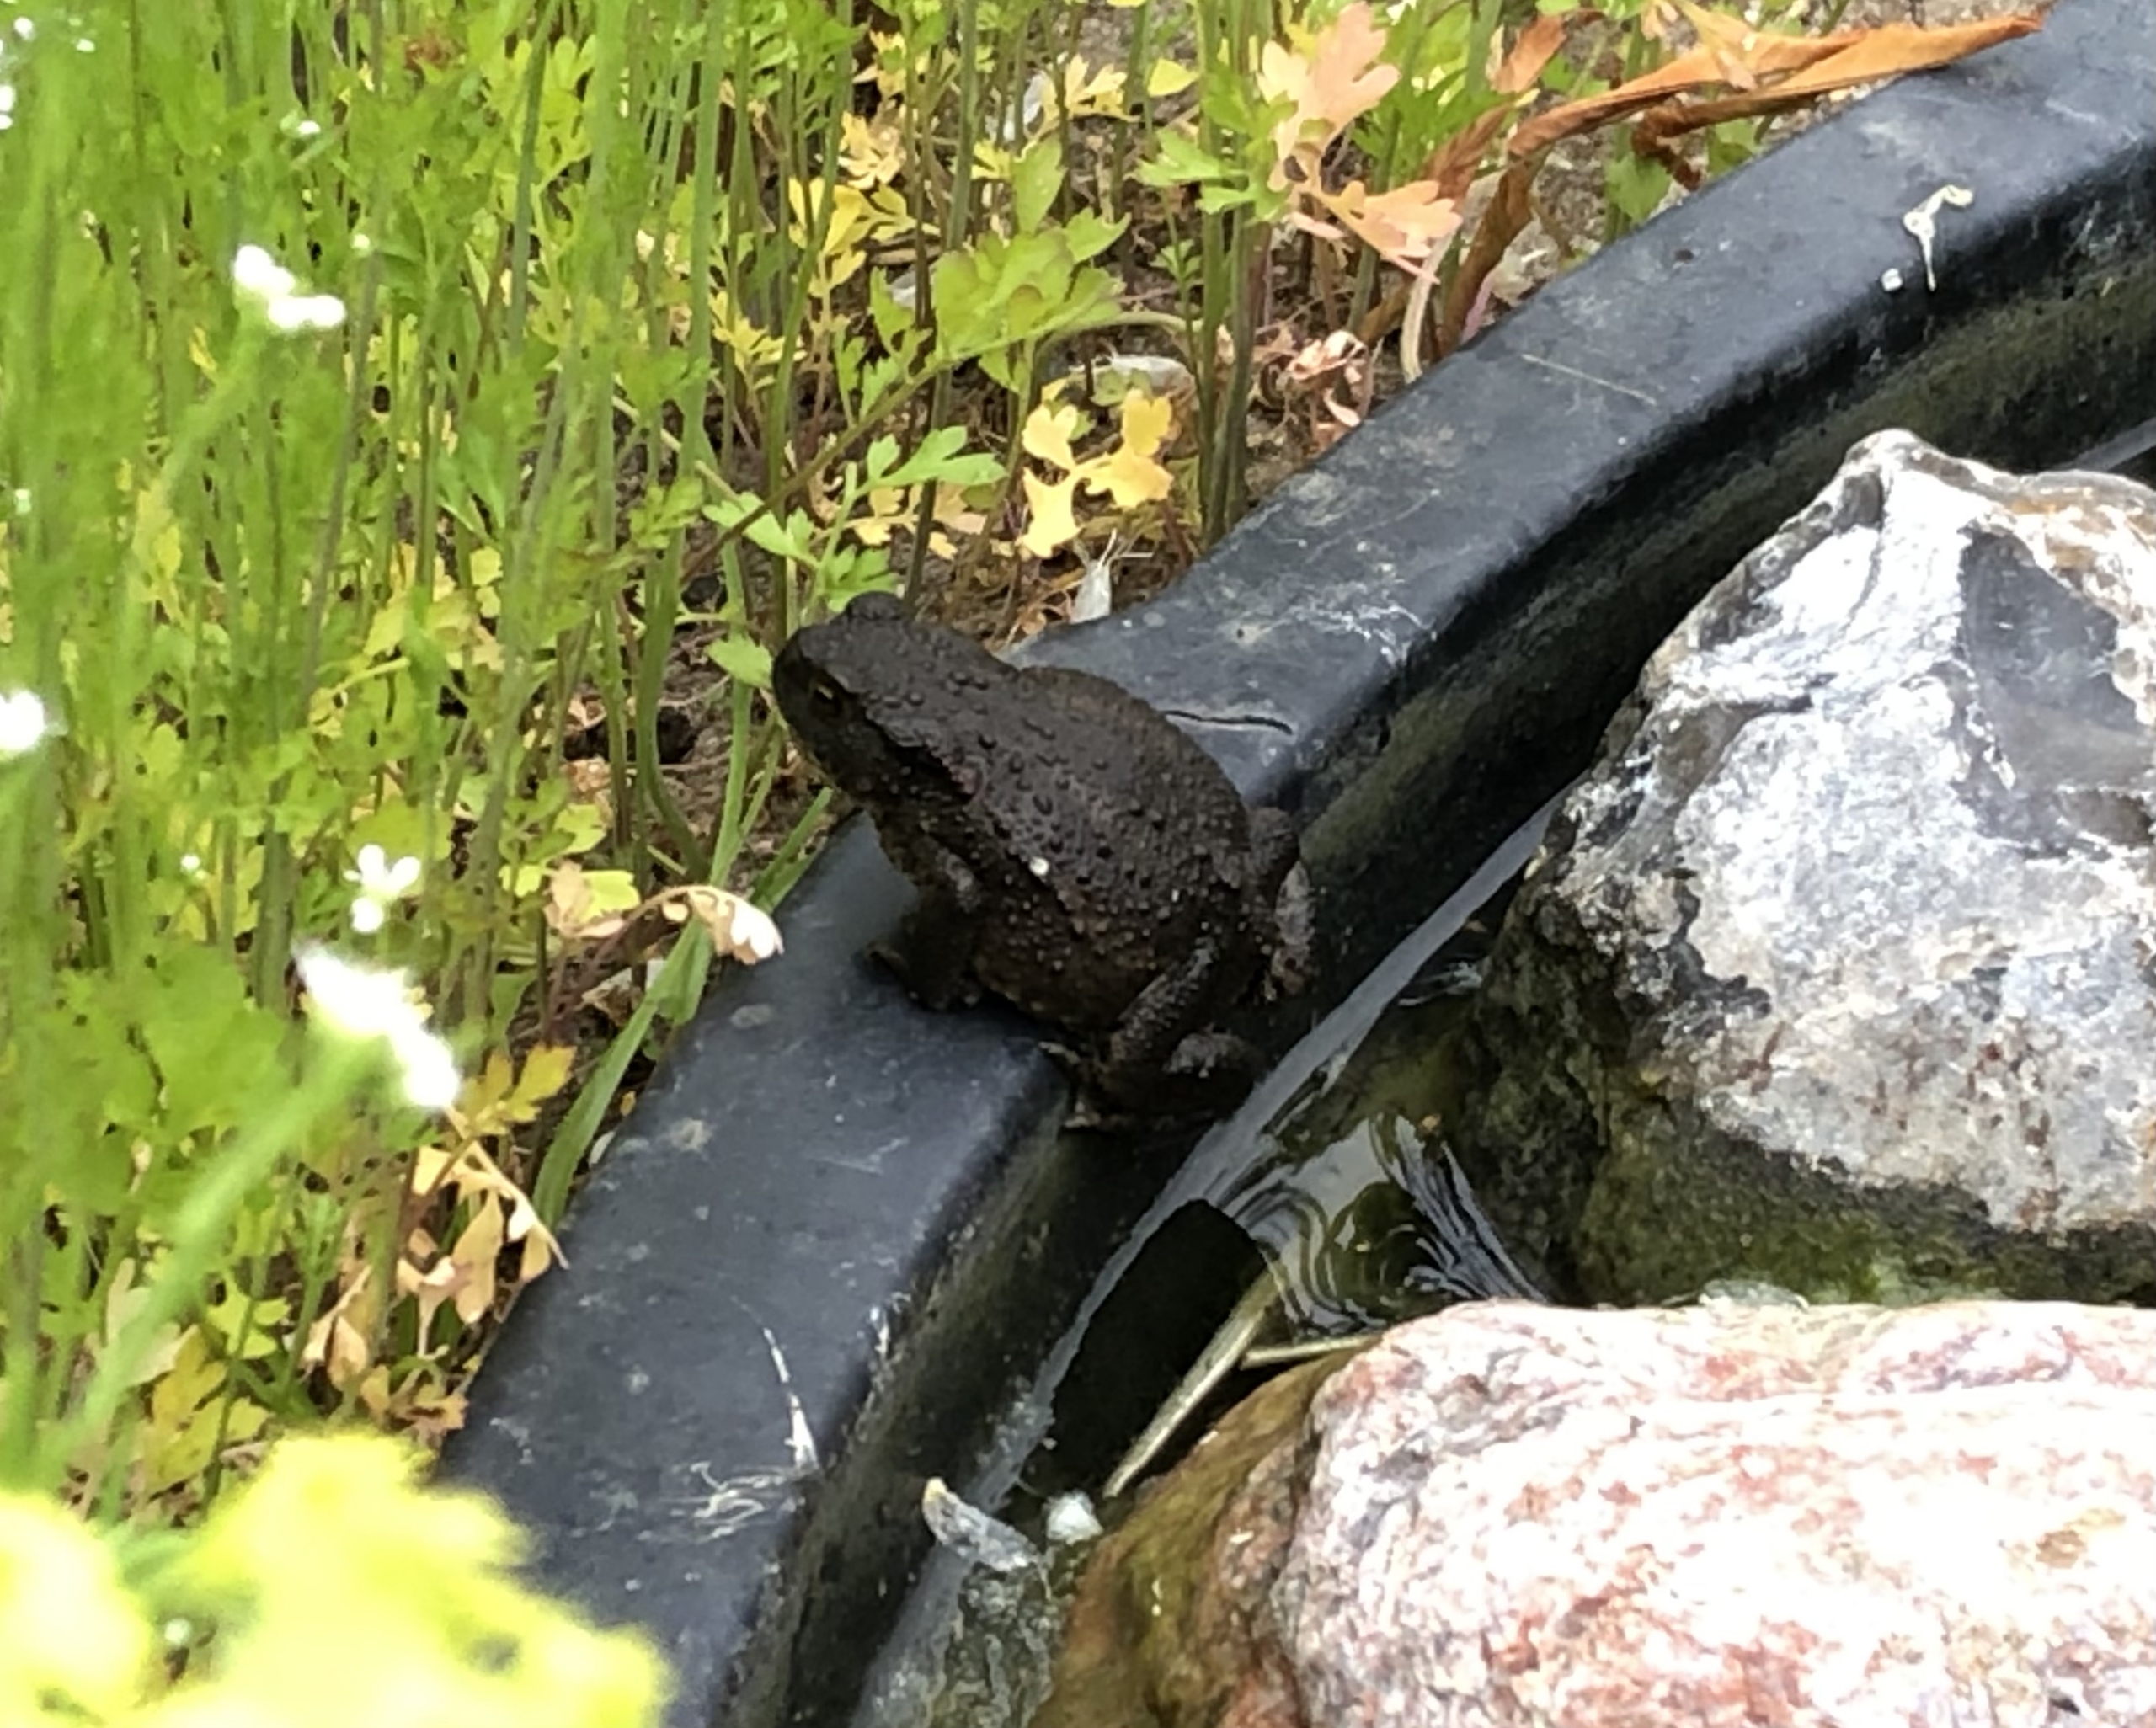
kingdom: Animalia
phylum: Chordata
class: Amphibia
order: Anura
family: Bufonidae
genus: Bufo
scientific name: Bufo bufo
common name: Skrubtudse
